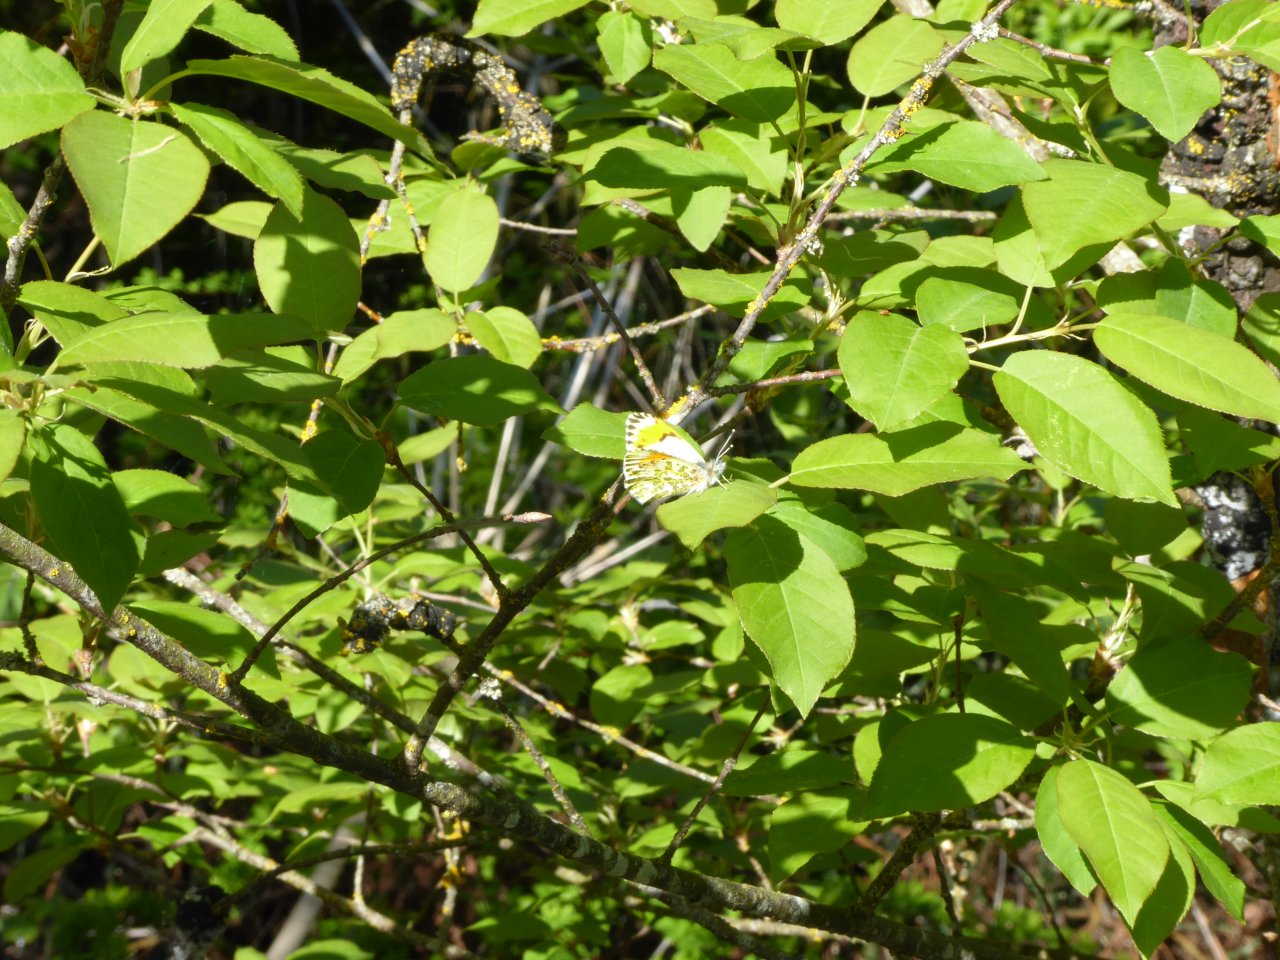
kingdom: Animalia
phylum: Arthropoda
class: Insecta
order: Lepidoptera
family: Pieridae
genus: Anthocharis
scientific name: Anthocharis sara
